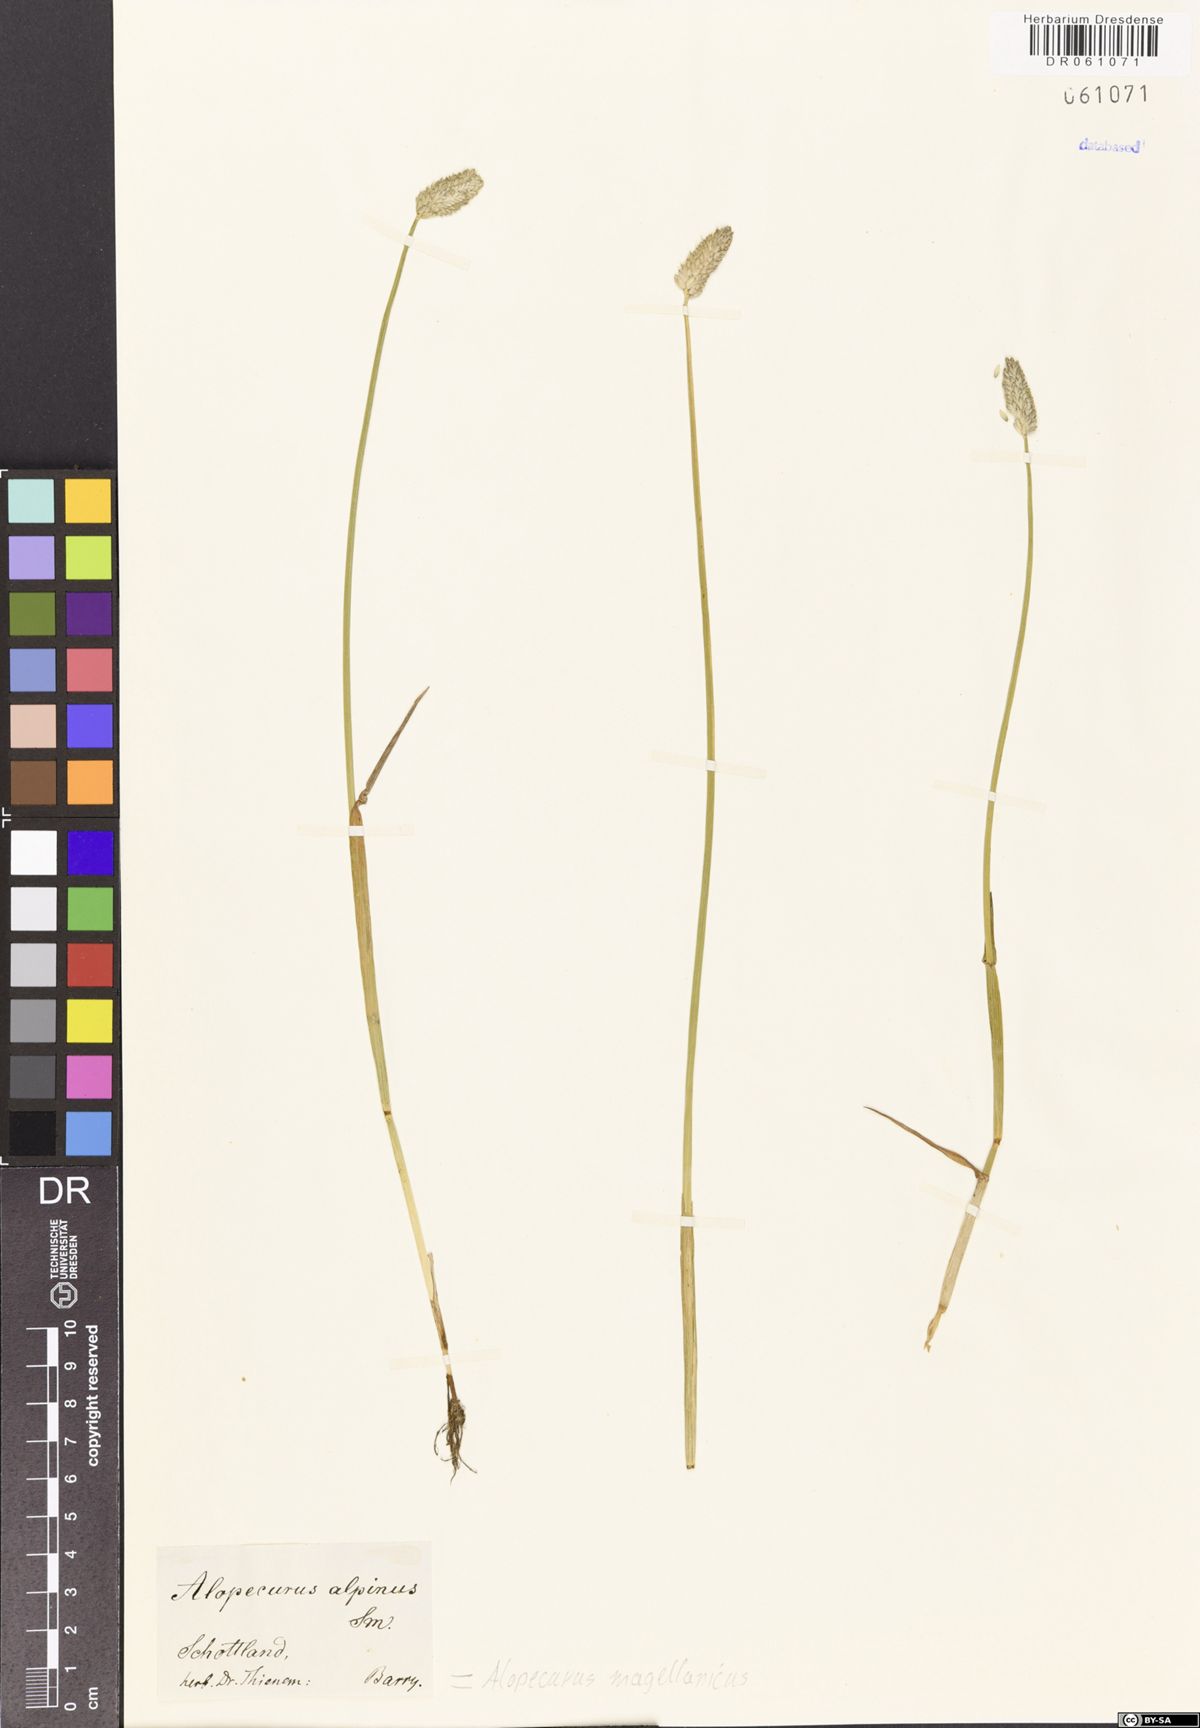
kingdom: Plantae
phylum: Tracheophyta
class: Liliopsida
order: Poales
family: Poaceae
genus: Alopecurus
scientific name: Alopecurus magellanicus
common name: Alpine foxtail
